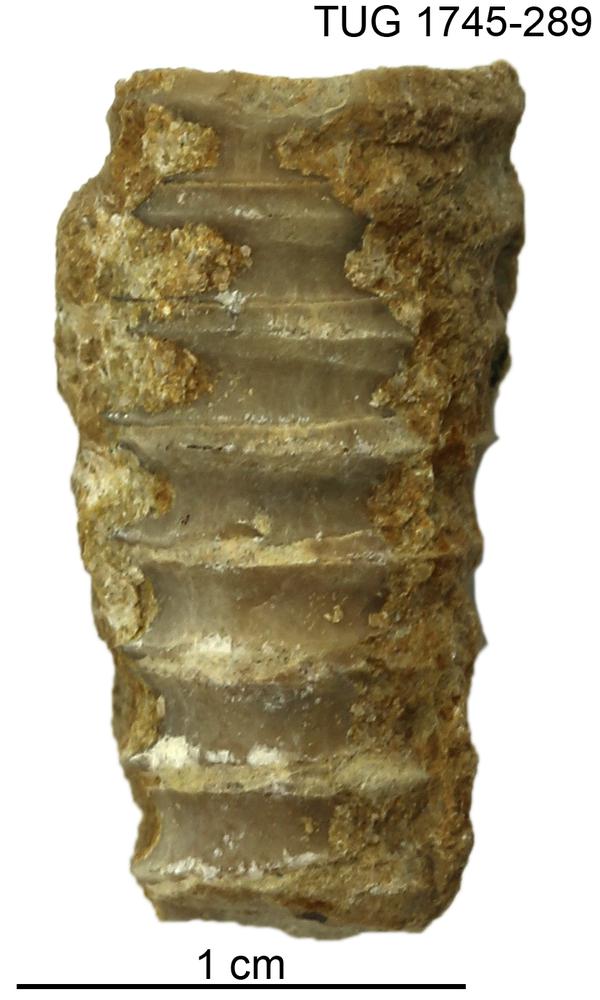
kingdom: Animalia
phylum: Mollusca
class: Cephalopoda
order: Nautilida
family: Nautilidae
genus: Dawsonoceras
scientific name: Dawsonoceras
